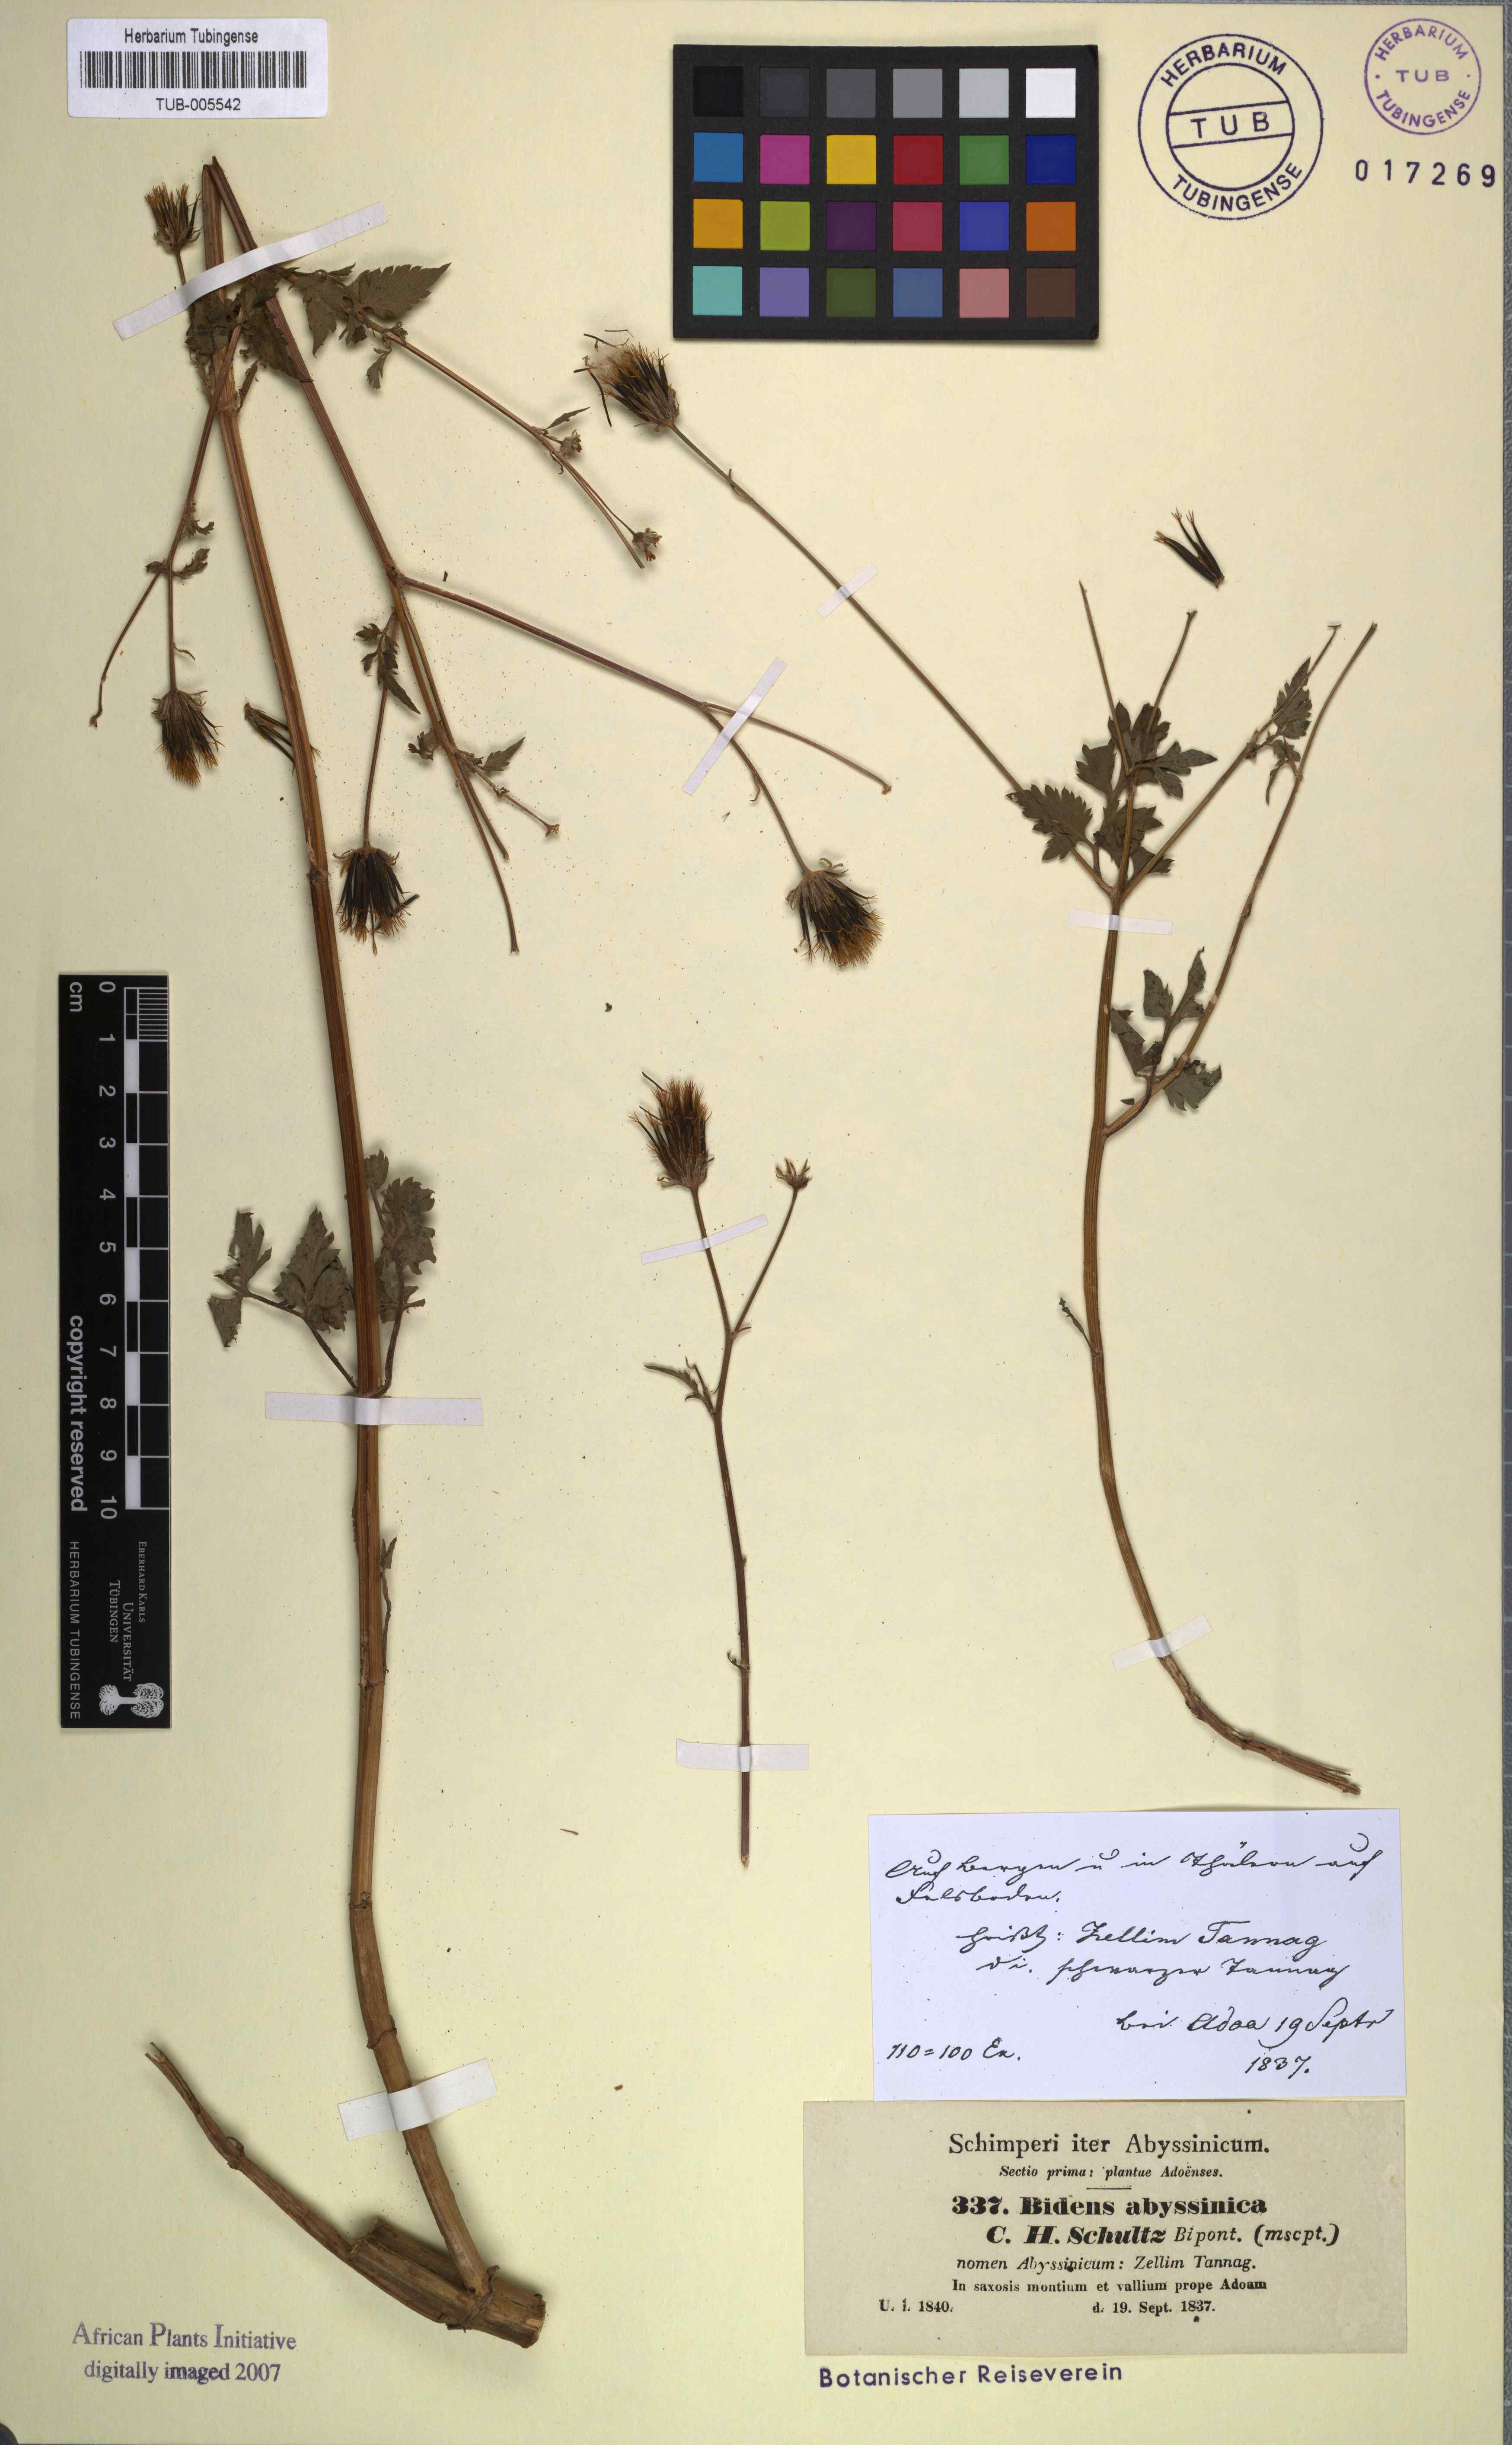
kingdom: Plantae
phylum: Tracheophyta
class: Magnoliopsida
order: Asterales
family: Asteraceae
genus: Bidens
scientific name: Bidens biternata
